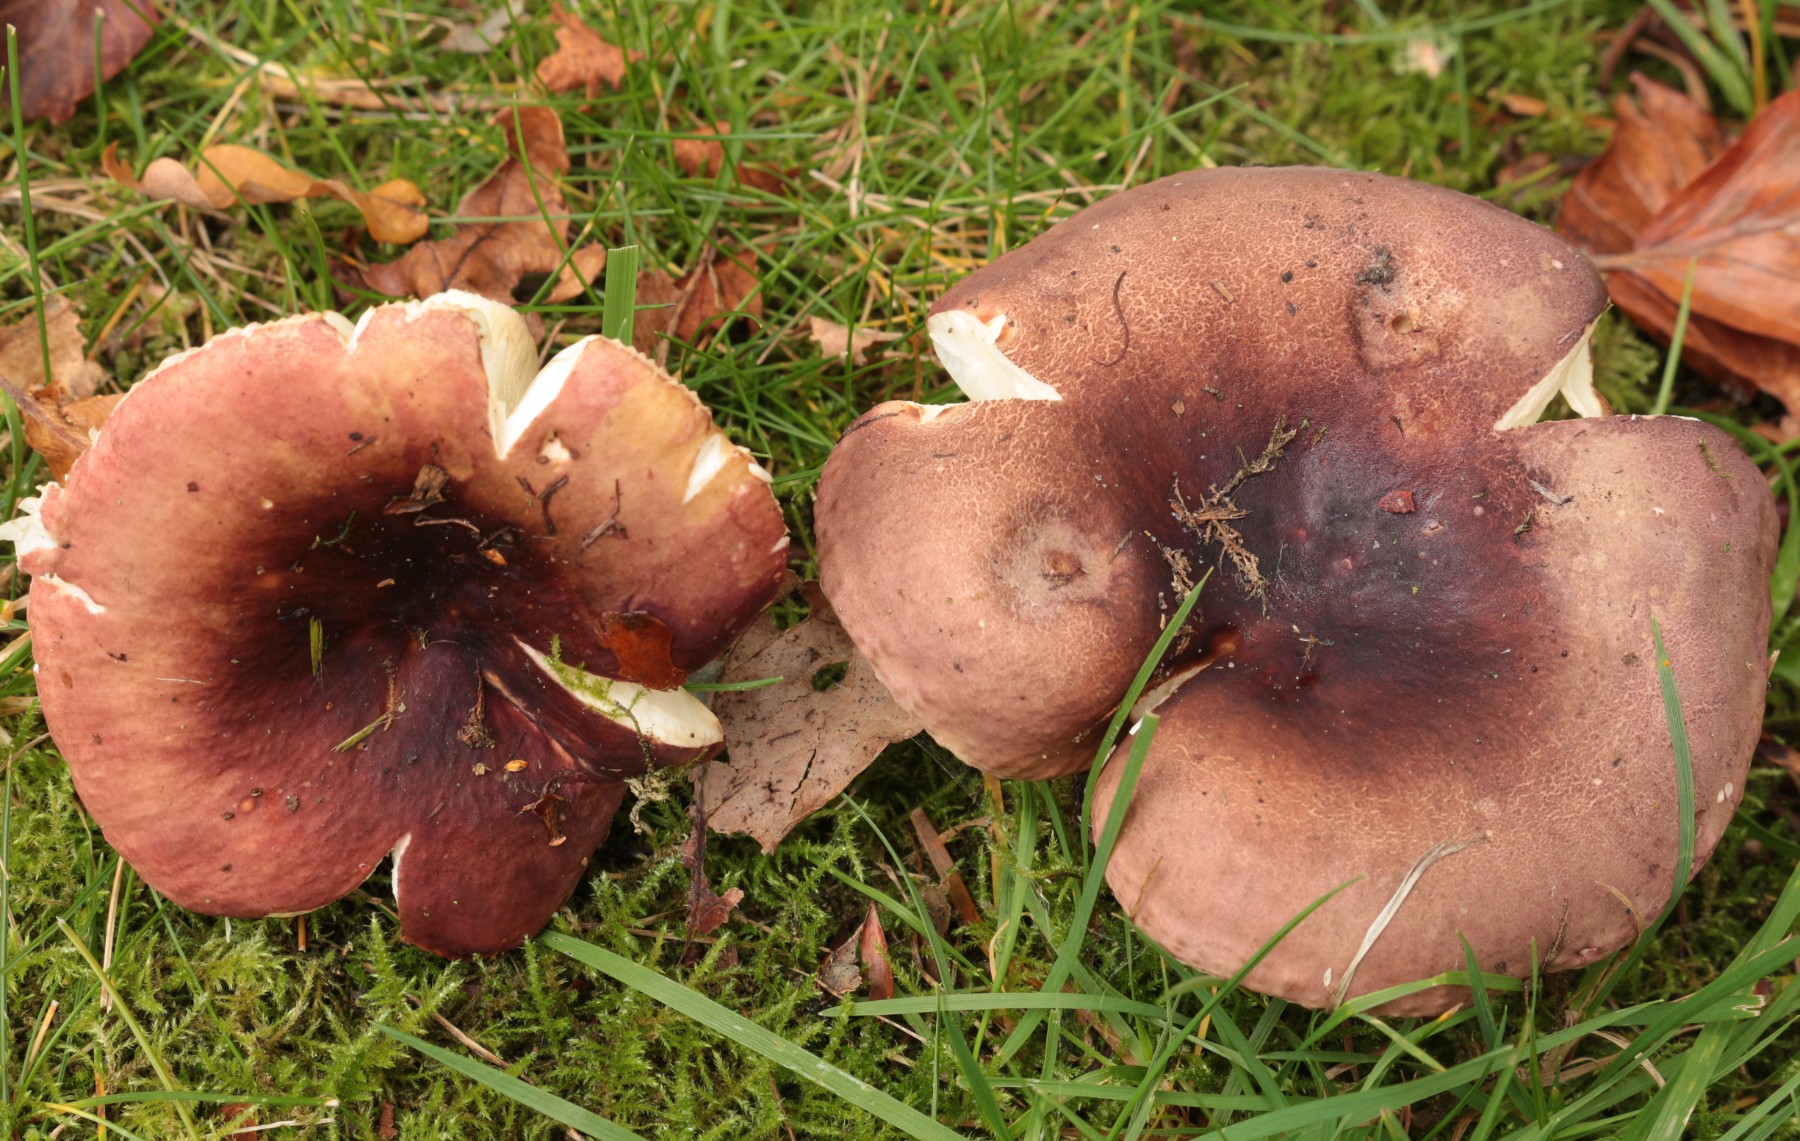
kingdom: Fungi
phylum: Basidiomycota
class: Agaricomycetes
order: Russulales
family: Russulaceae
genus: Russula
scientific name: Russula
